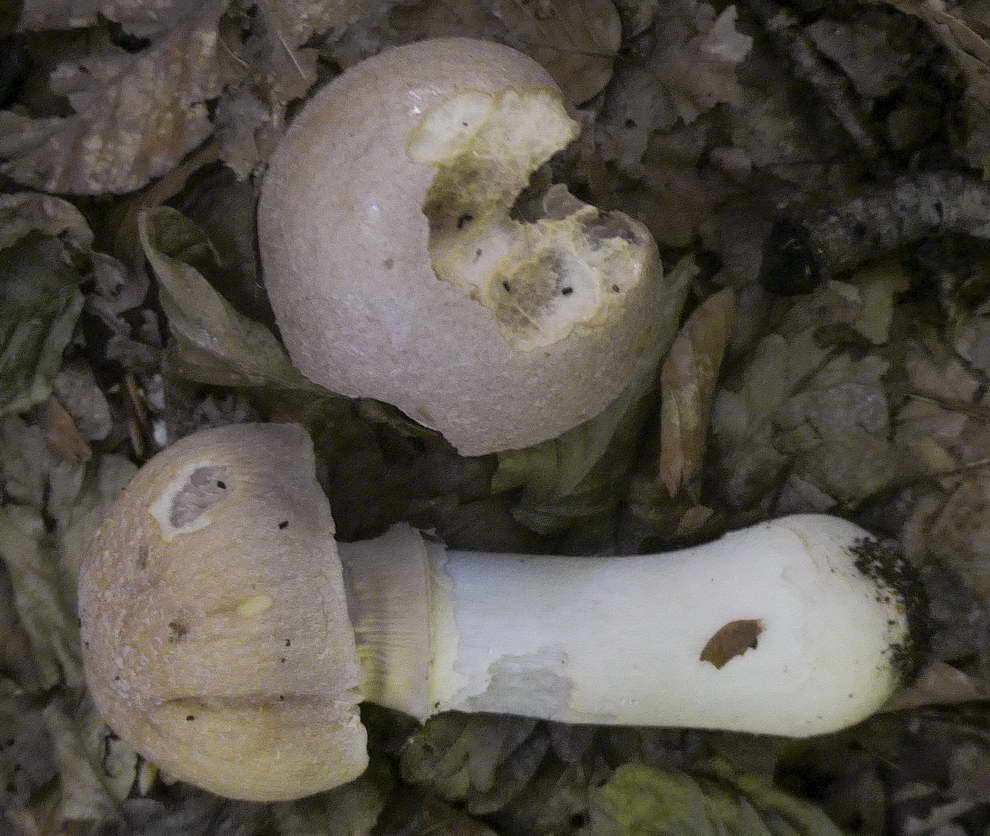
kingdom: Fungi
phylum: Basidiomycota
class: Agaricomycetes
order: Agaricales
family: Cortinariaceae
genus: Cortinarius
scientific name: Cortinarius caperatus
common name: klidhat
